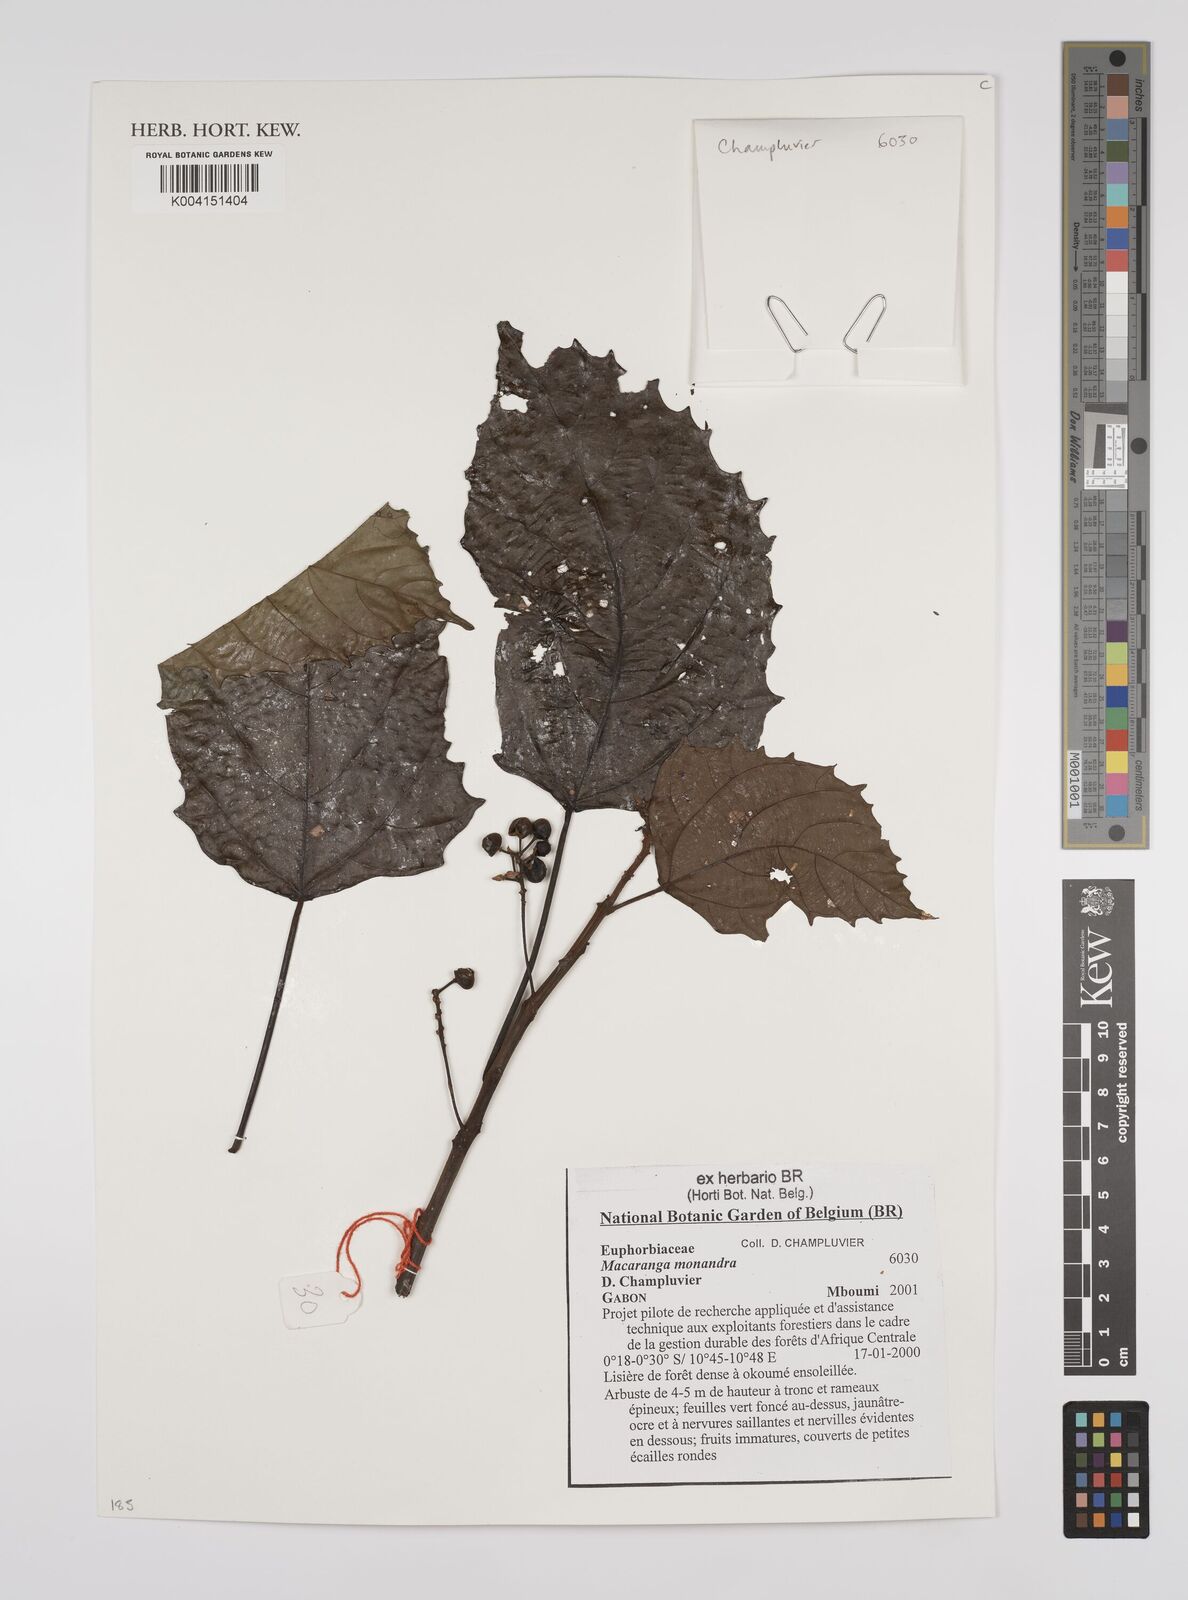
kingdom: Plantae
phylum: Tracheophyta
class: Magnoliopsida
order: Malpighiales
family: Euphorbiaceae
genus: Macaranga
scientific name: Macaranga monandra
